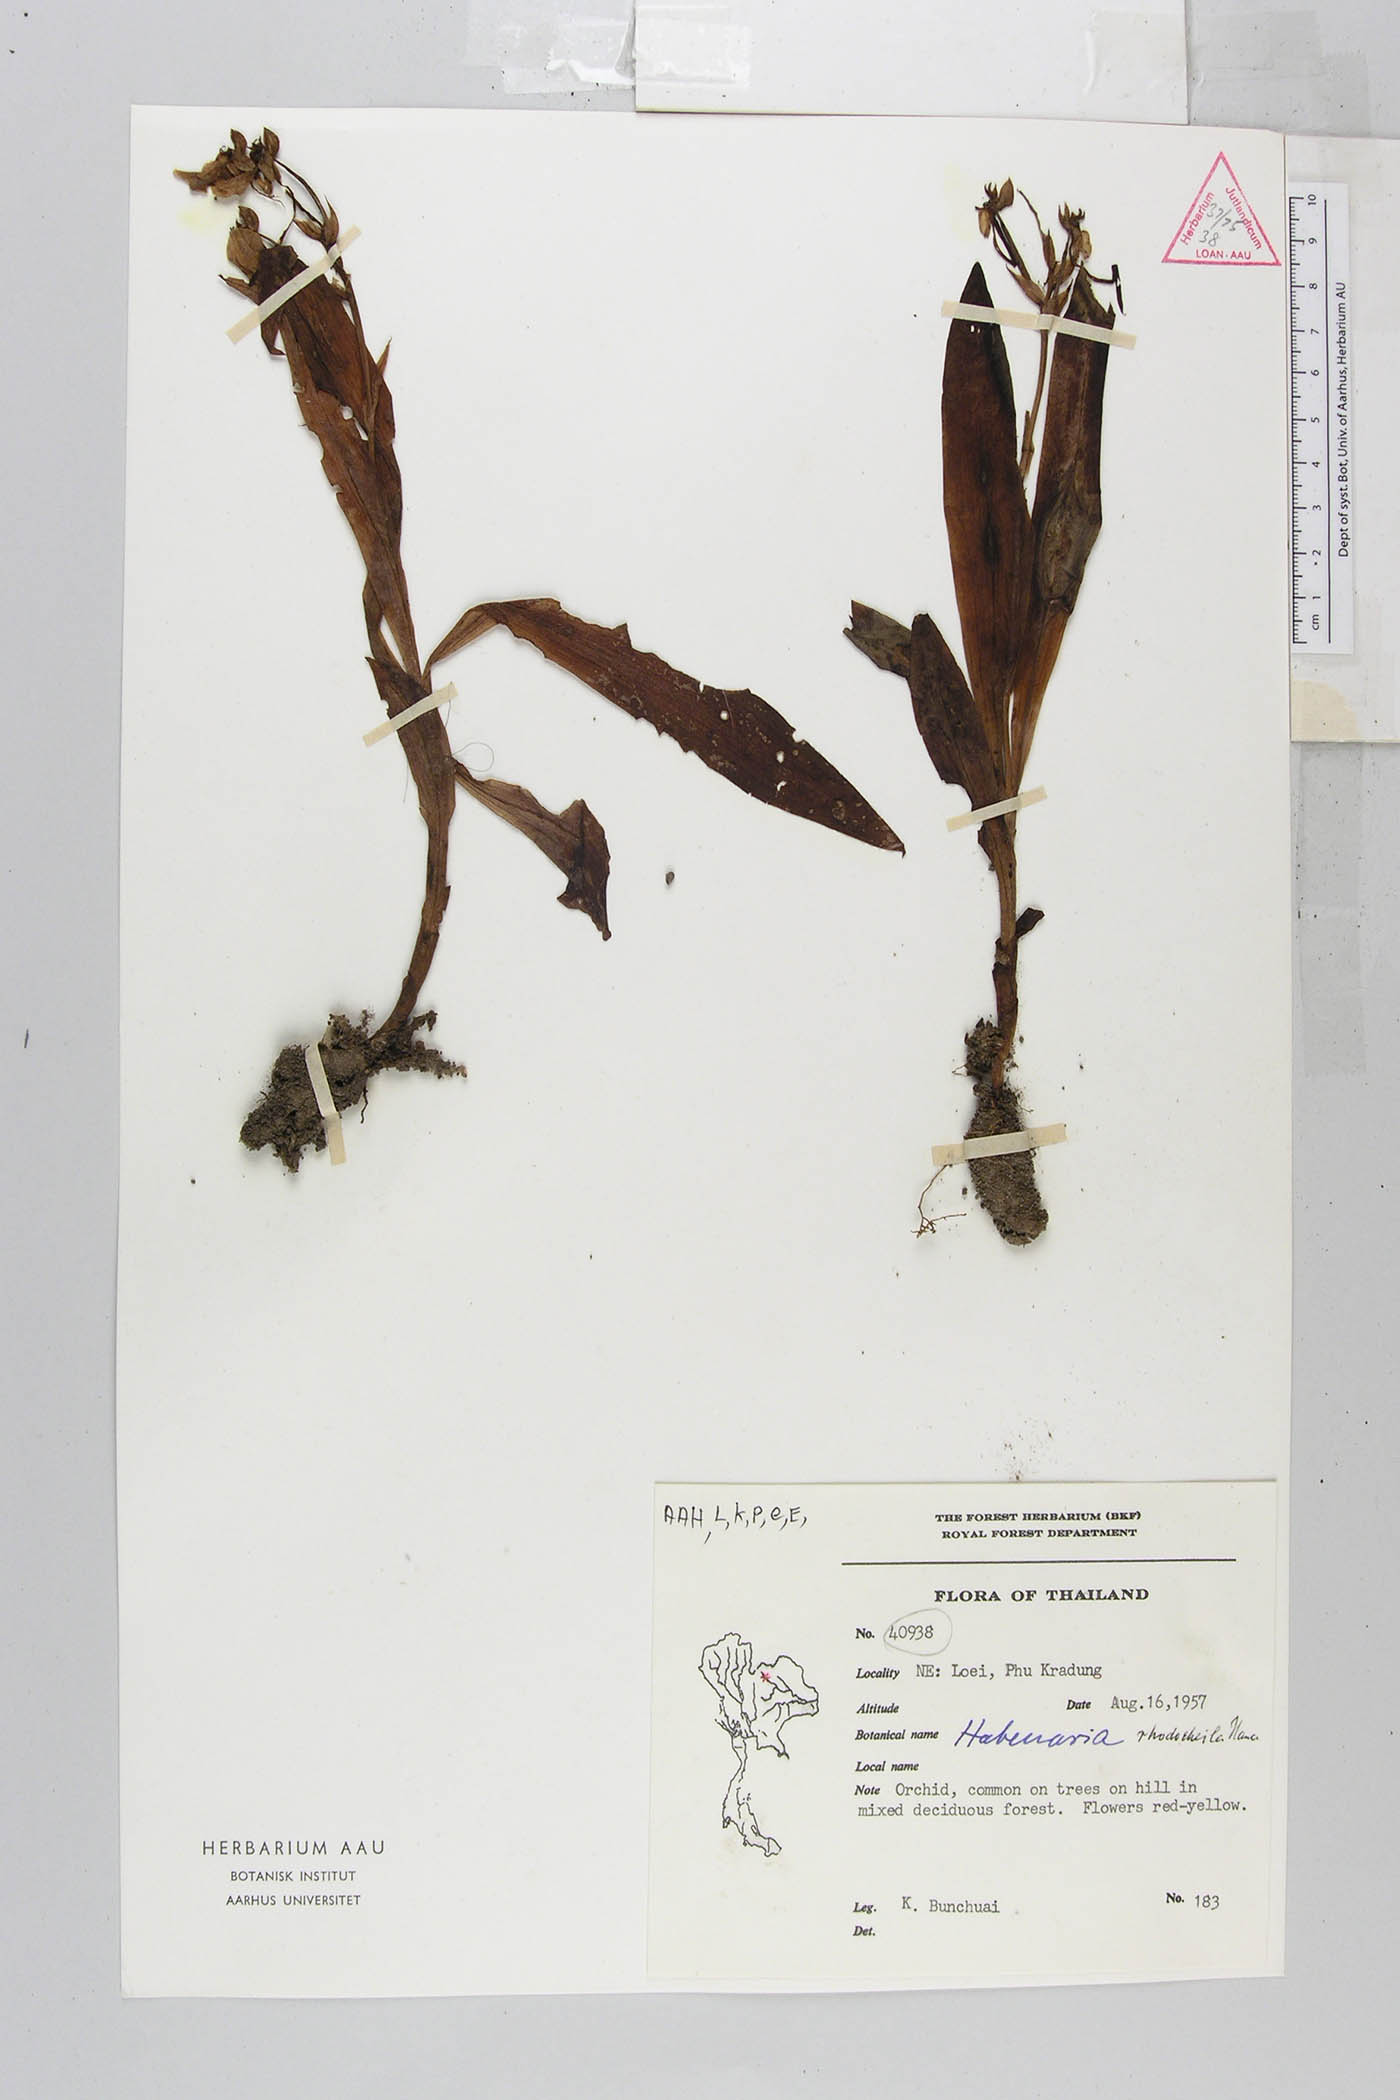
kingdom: Plantae
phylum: Tracheophyta
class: Liliopsida
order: Asparagales
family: Orchidaceae
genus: Habenaria
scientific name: Habenaria rhodocheila
